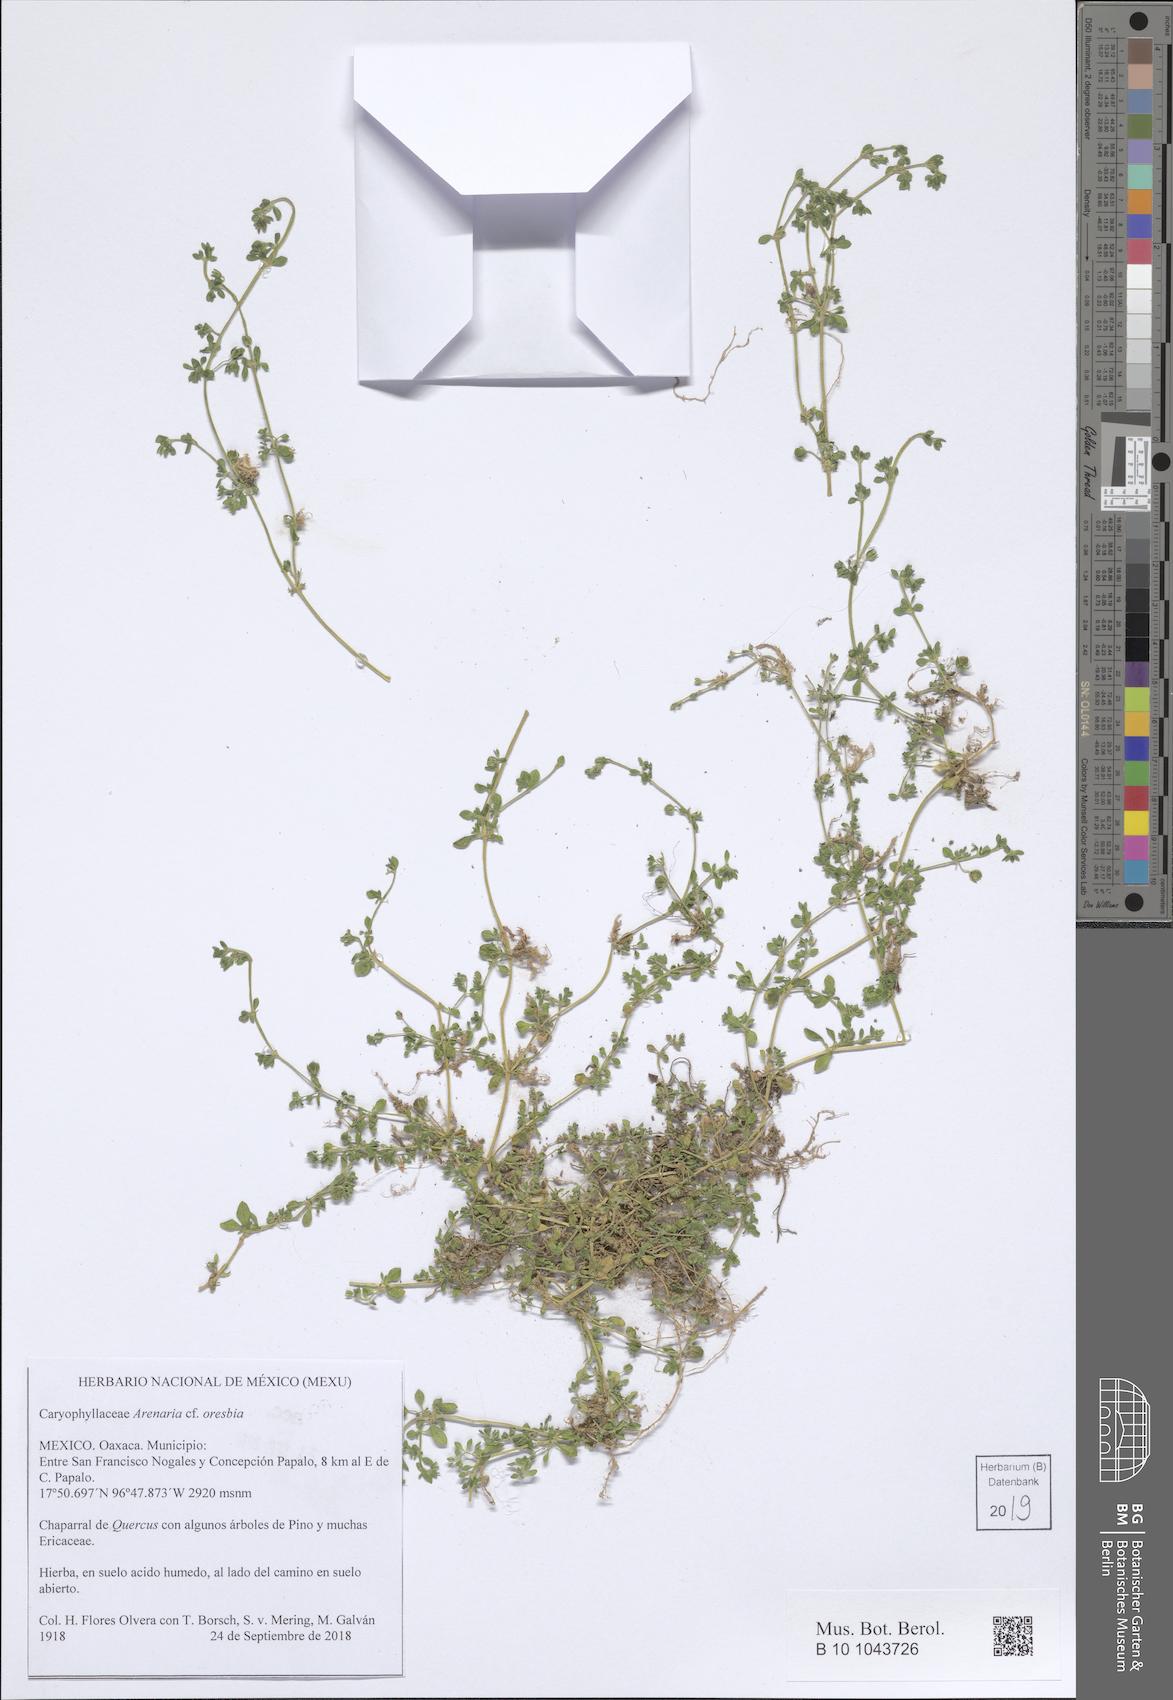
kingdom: Plantae
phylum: Tracheophyta
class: Magnoliopsida
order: Caryophyllales
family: Caryophyllaceae
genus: Arenaria
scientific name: Arenaria oresbia
